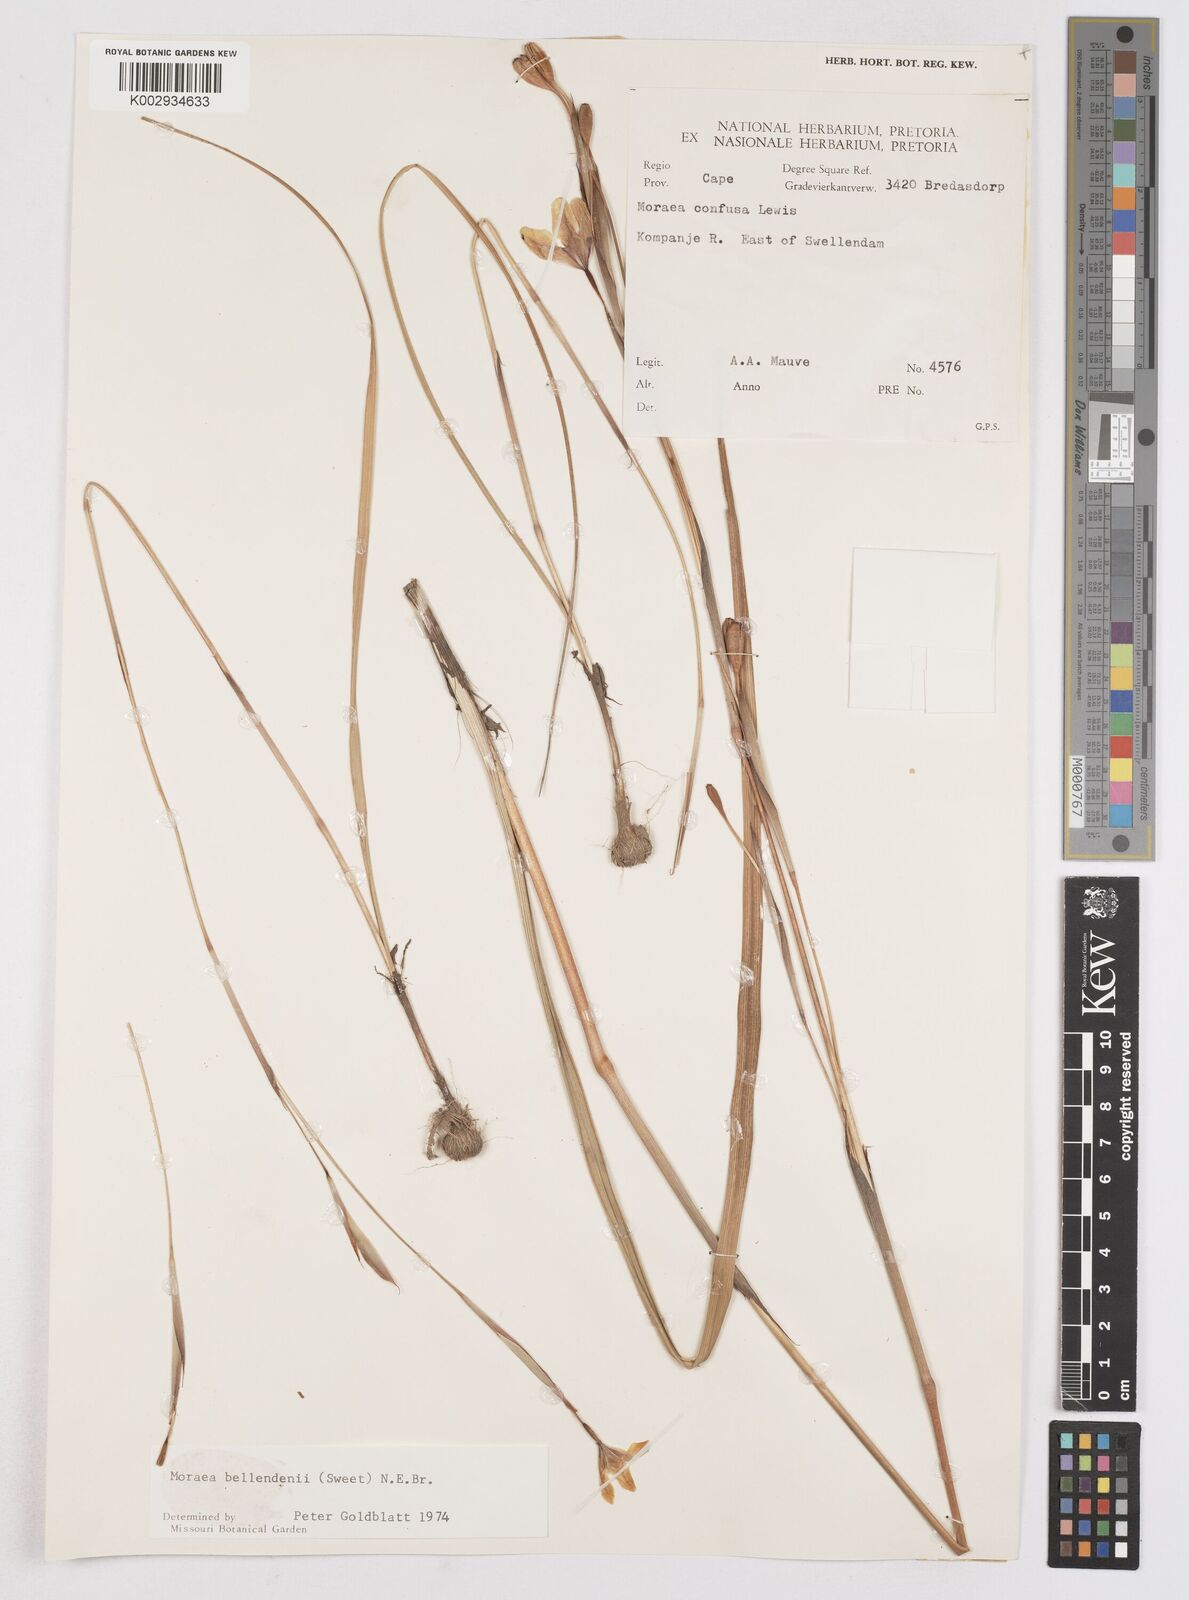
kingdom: Plantae
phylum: Tracheophyta
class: Liliopsida
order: Asparagales
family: Iridaceae
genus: Moraea
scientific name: Moraea bellendenii
